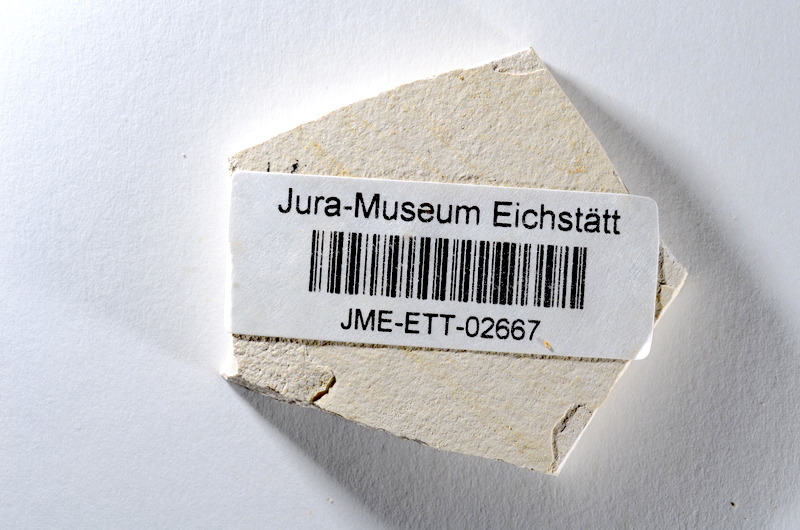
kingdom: Animalia
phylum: Chordata
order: Salmoniformes
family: Orthogonikleithridae
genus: Orthogonikleithrus
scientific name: Orthogonikleithrus hoelli
